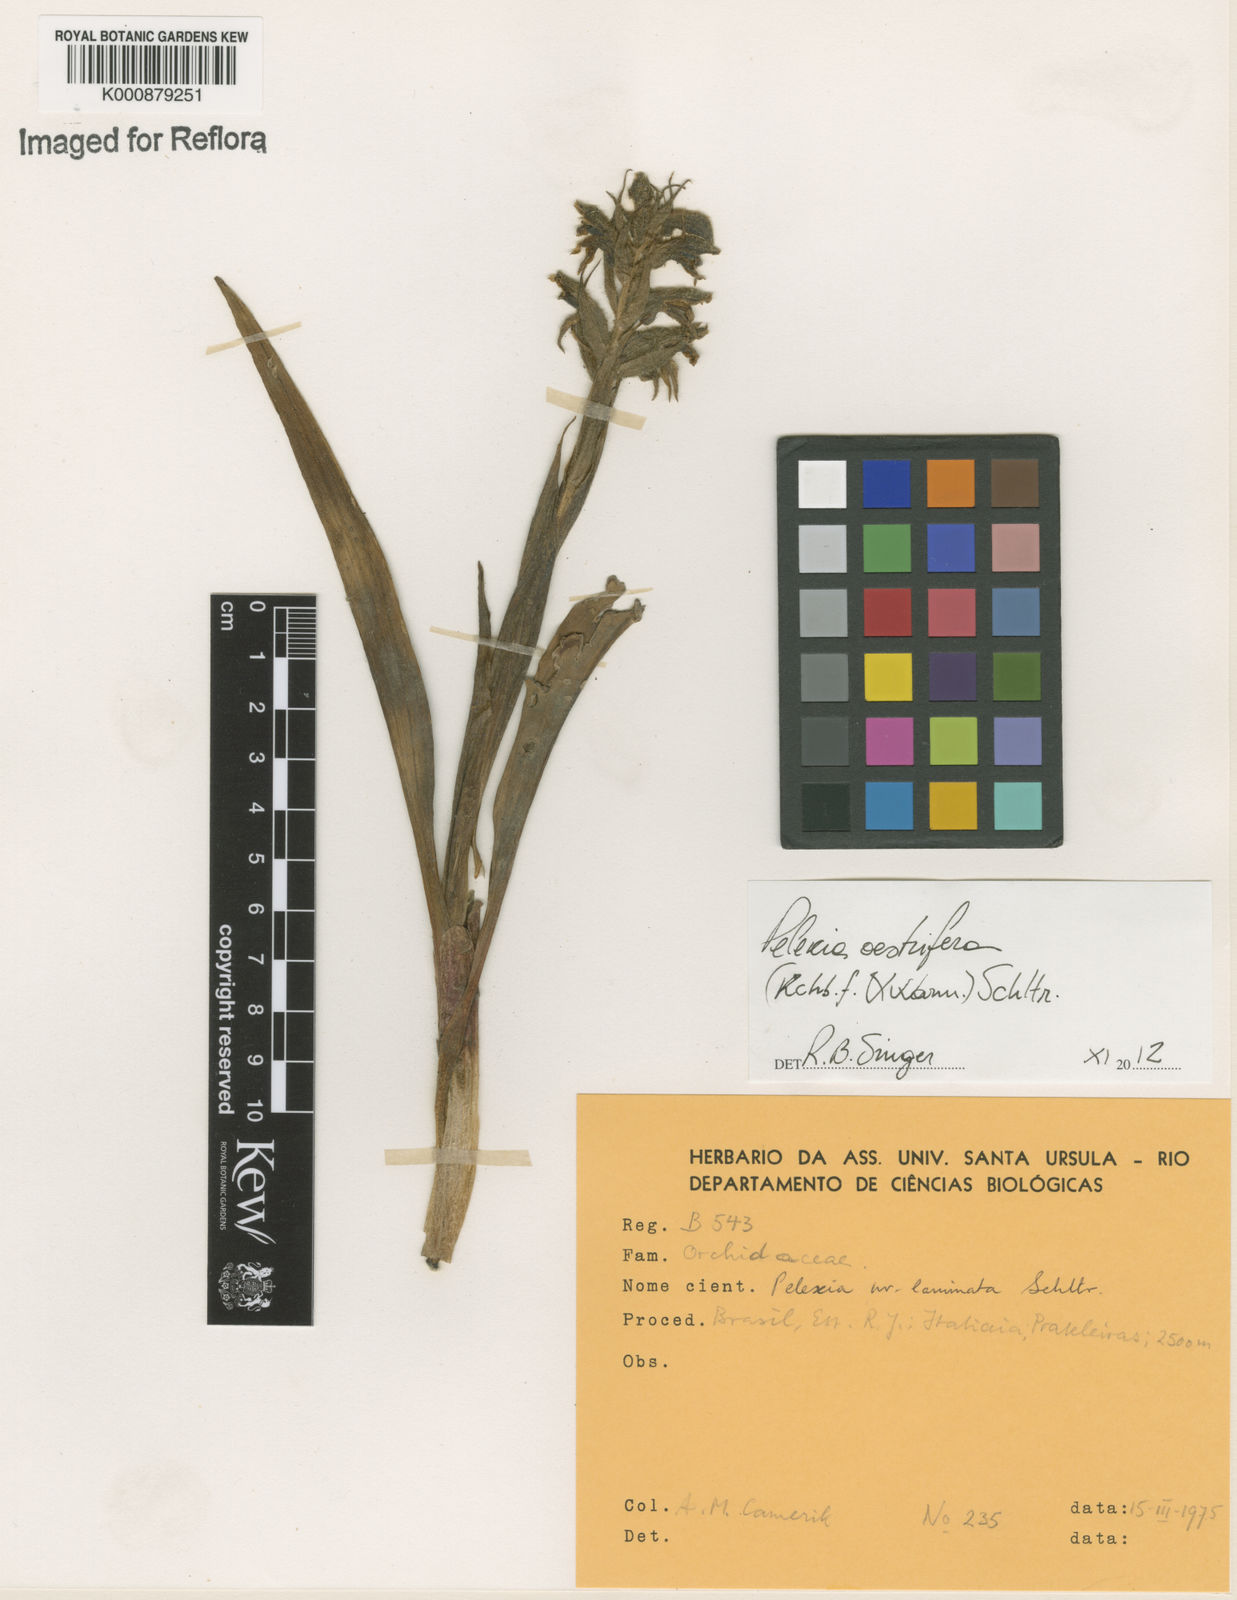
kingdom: Plantae
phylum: Tracheophyta
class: Liliopsida
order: Asparagales
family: Orchidaceae
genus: Pelexia
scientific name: Pelexia oestrifera
